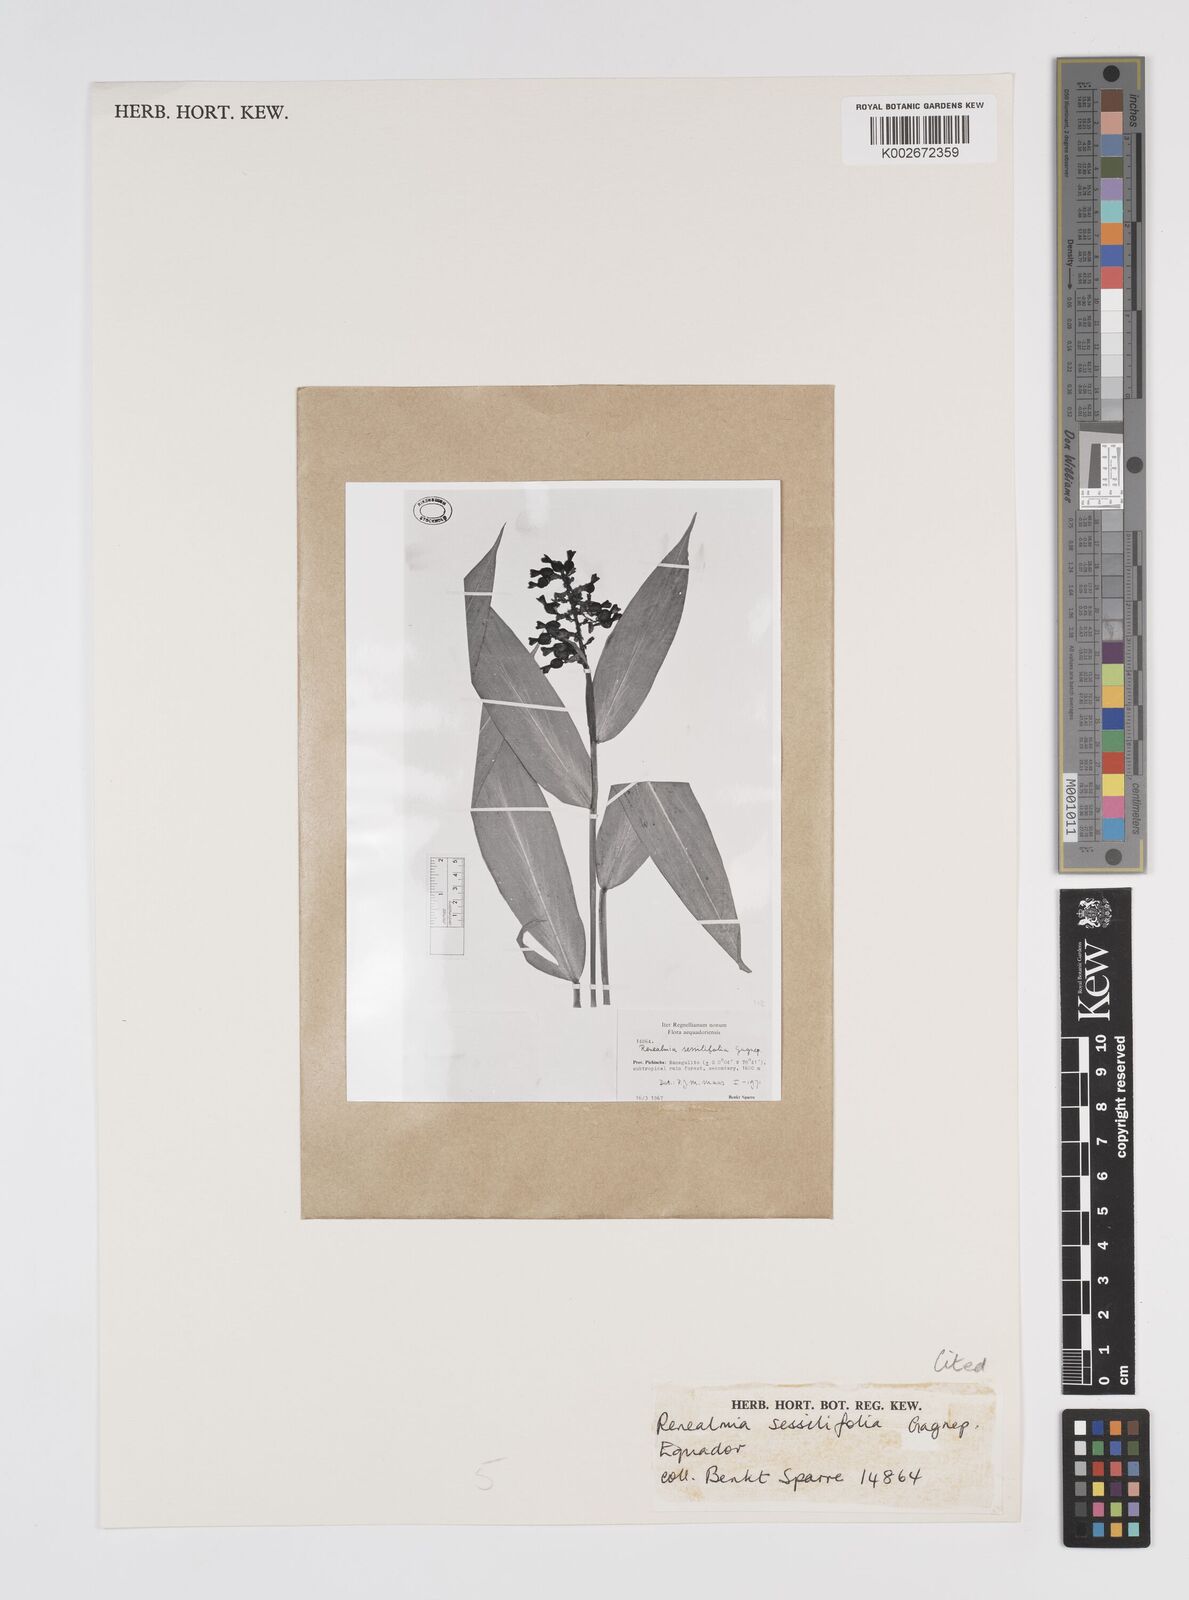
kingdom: Plantae
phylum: Tracheophyta
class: Liliopsida
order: Zingiberales
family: Zingiberaceae
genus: Renealmia
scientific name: Renealmia sessilifolia
